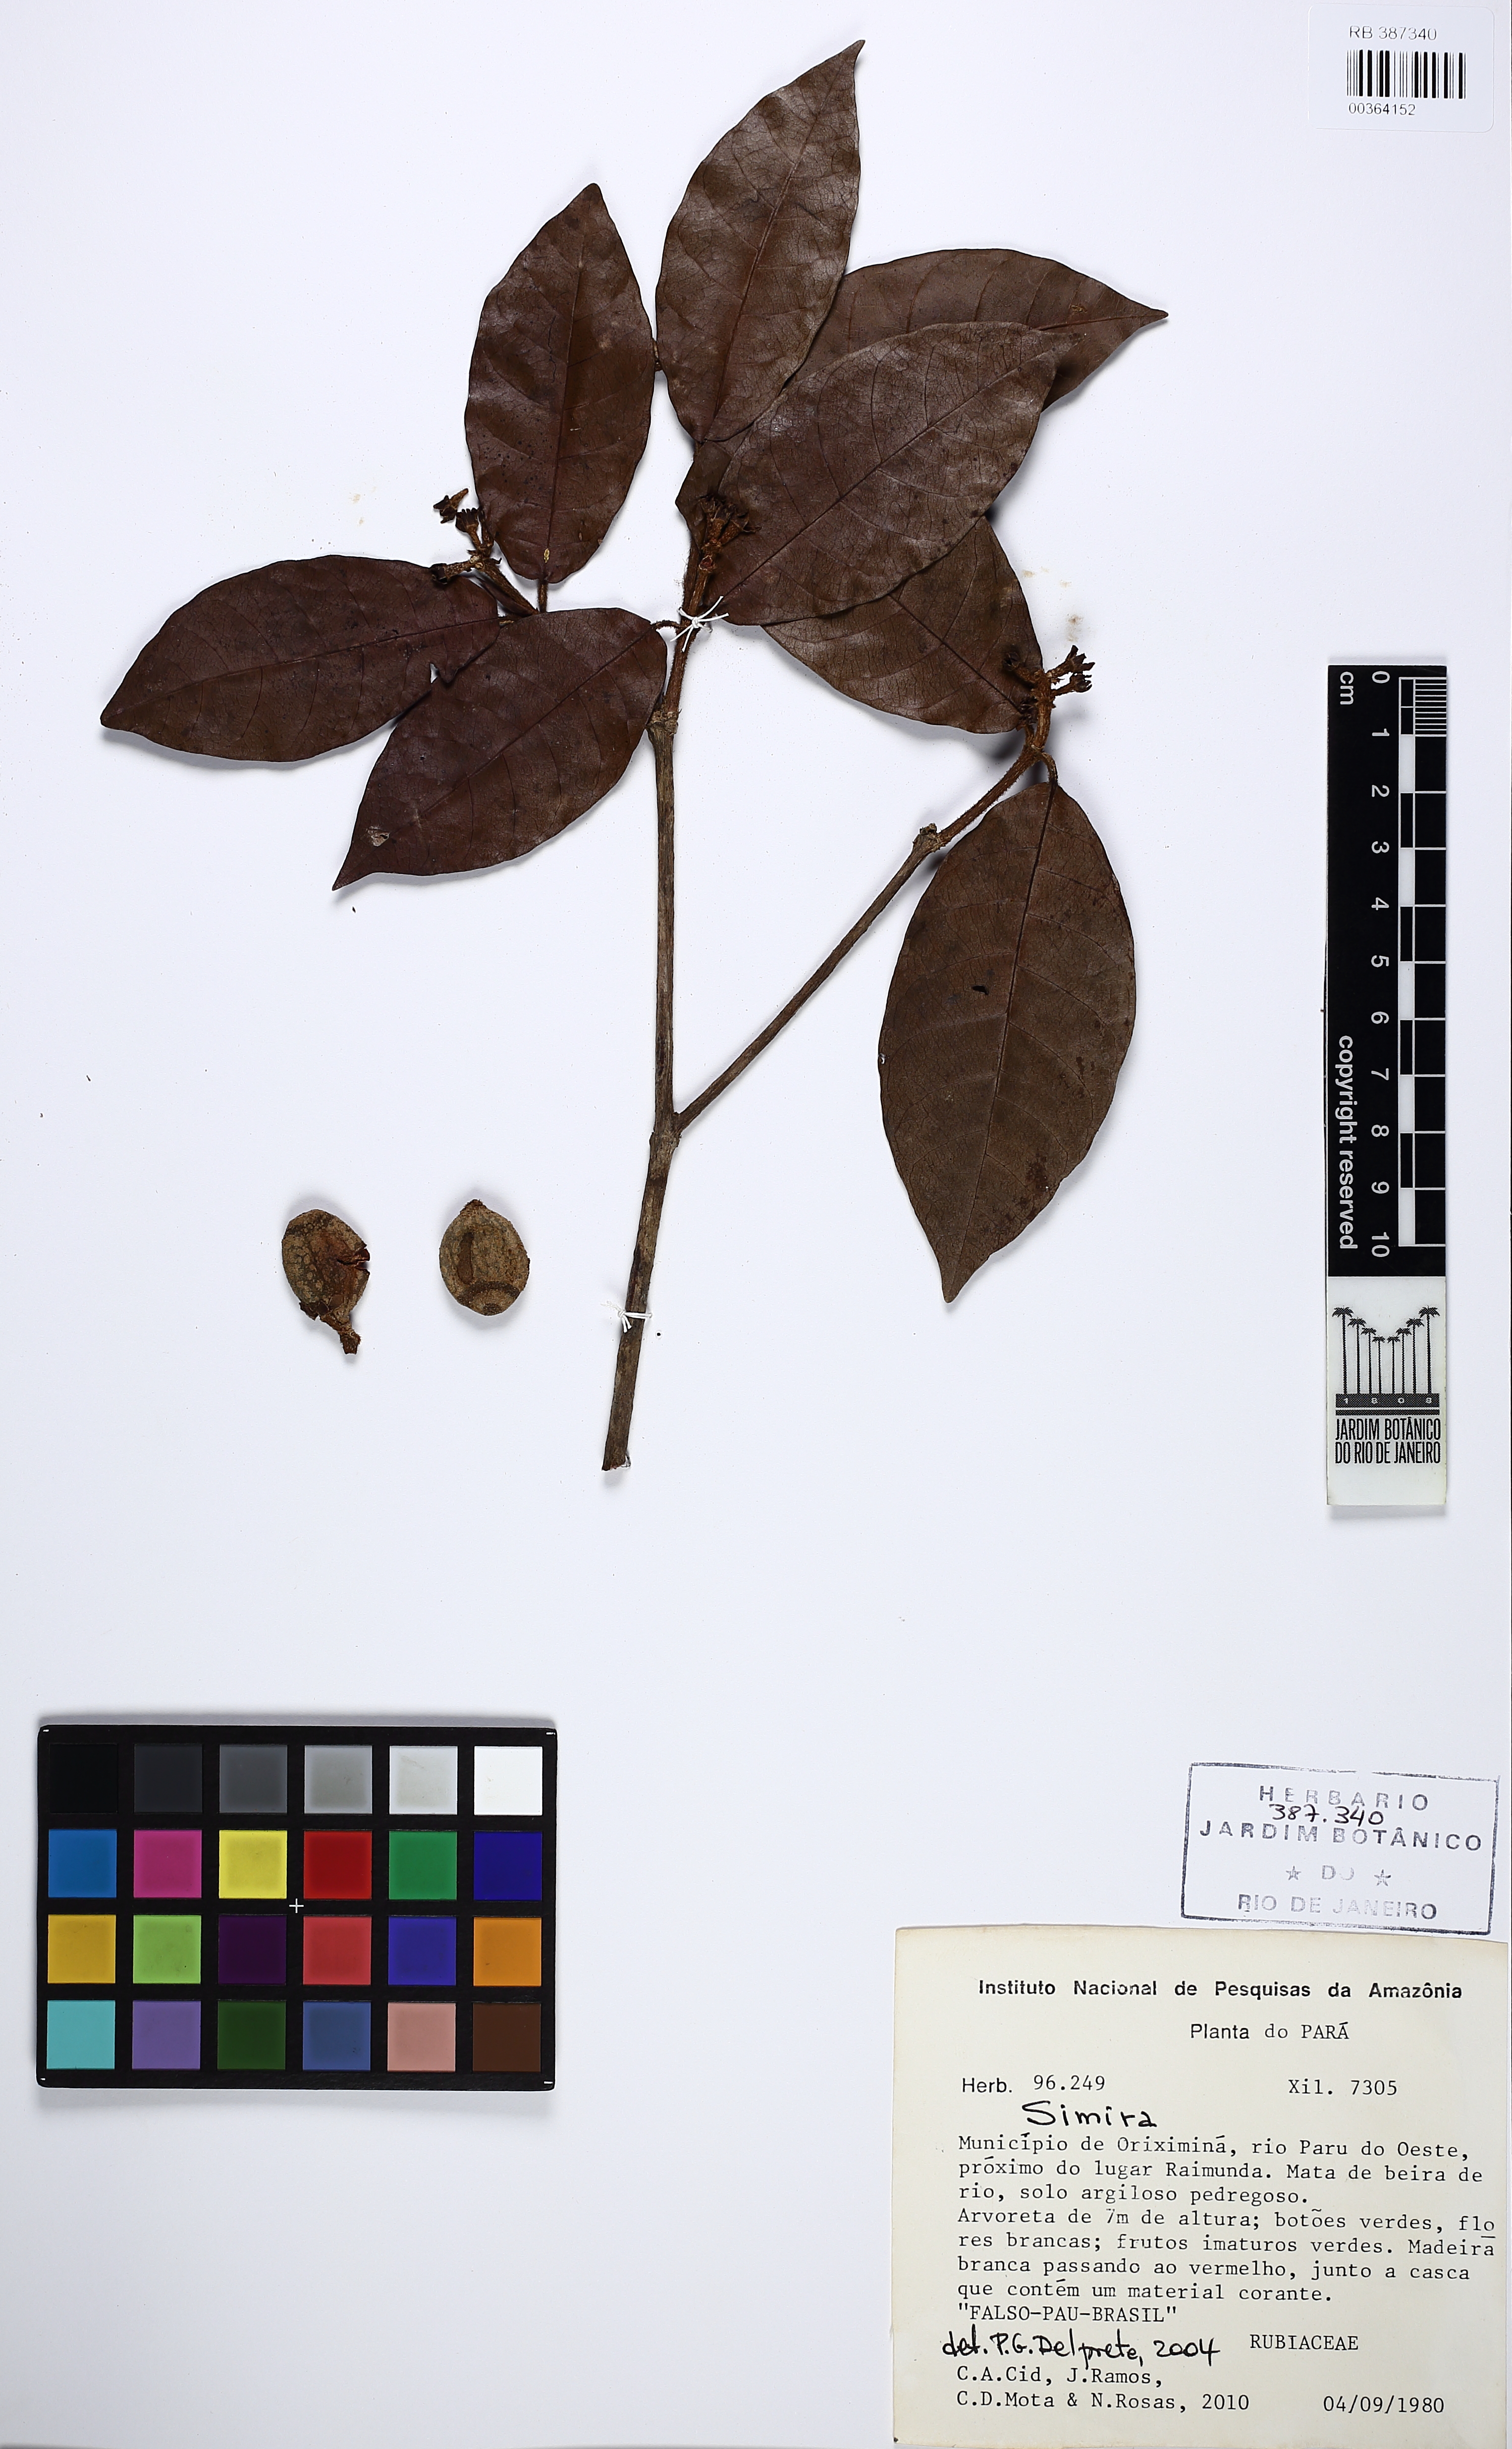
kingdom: Plantae
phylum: Tracheophyta
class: Magnoliopsida
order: Gentianales
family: Rubiaceae
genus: Simira
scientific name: Simira
